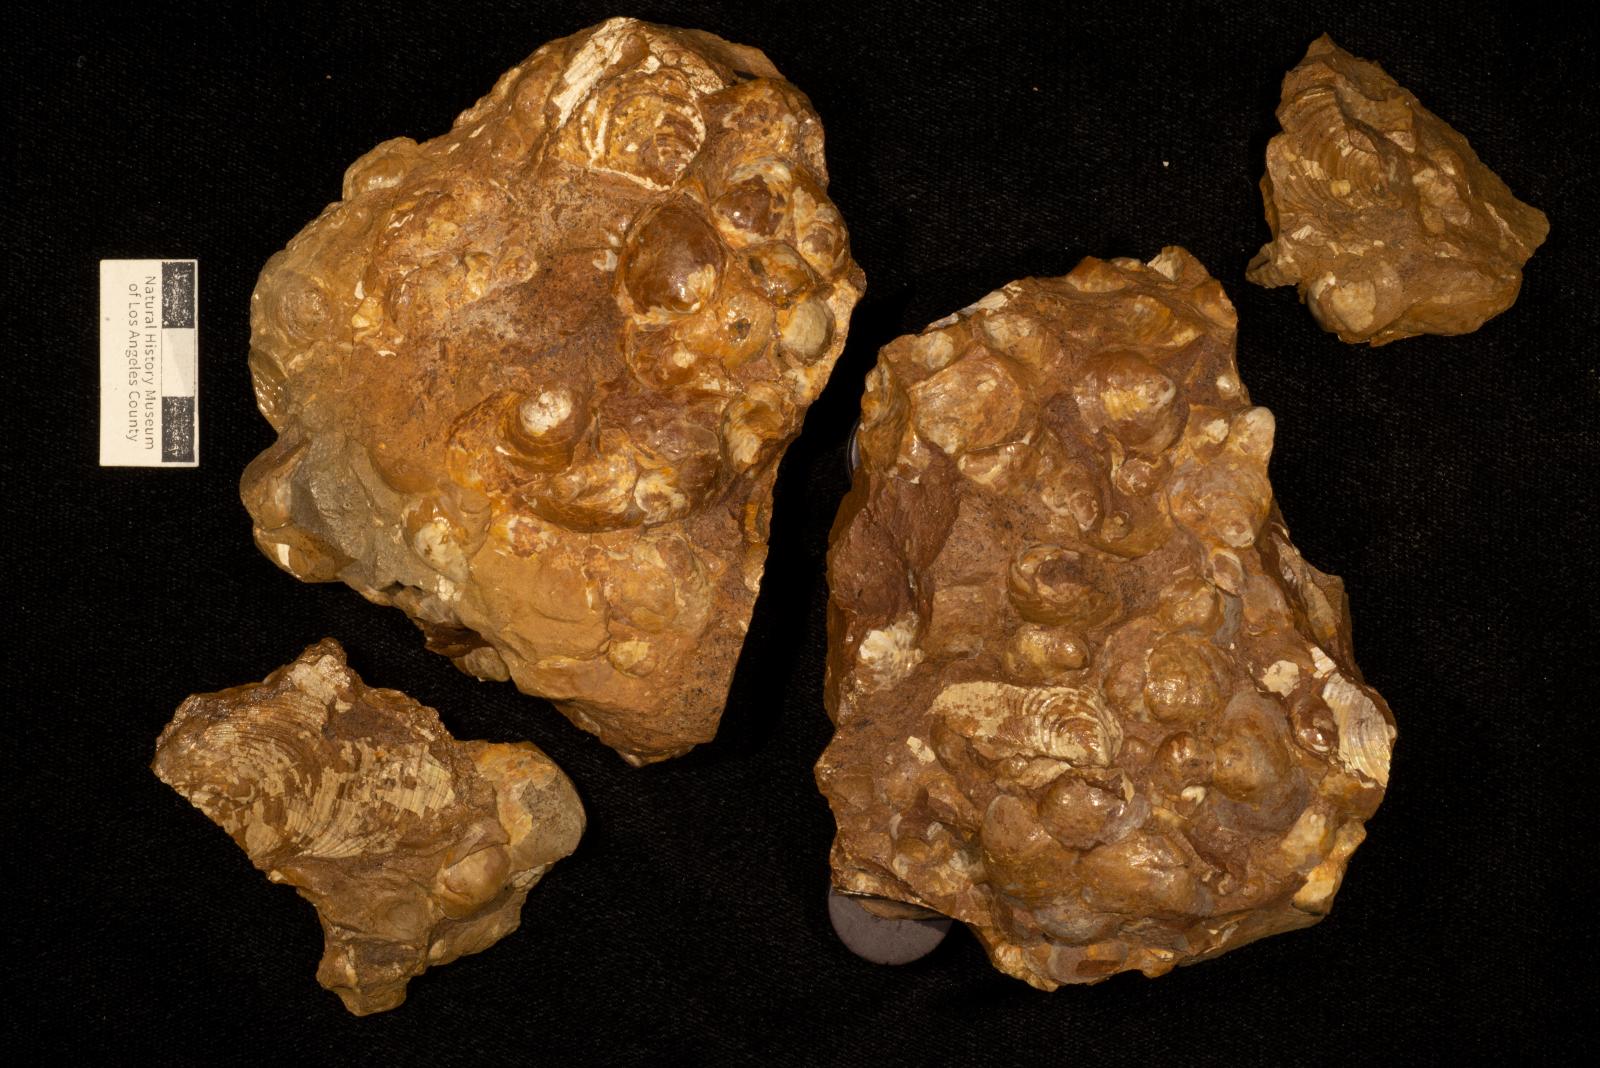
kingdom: Animalia
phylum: Mollusca
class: Bivalvia
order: Myalinida
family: Inoceramidae
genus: Sphenoceramus
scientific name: Sphenoceramus Inoceramus orientalis
